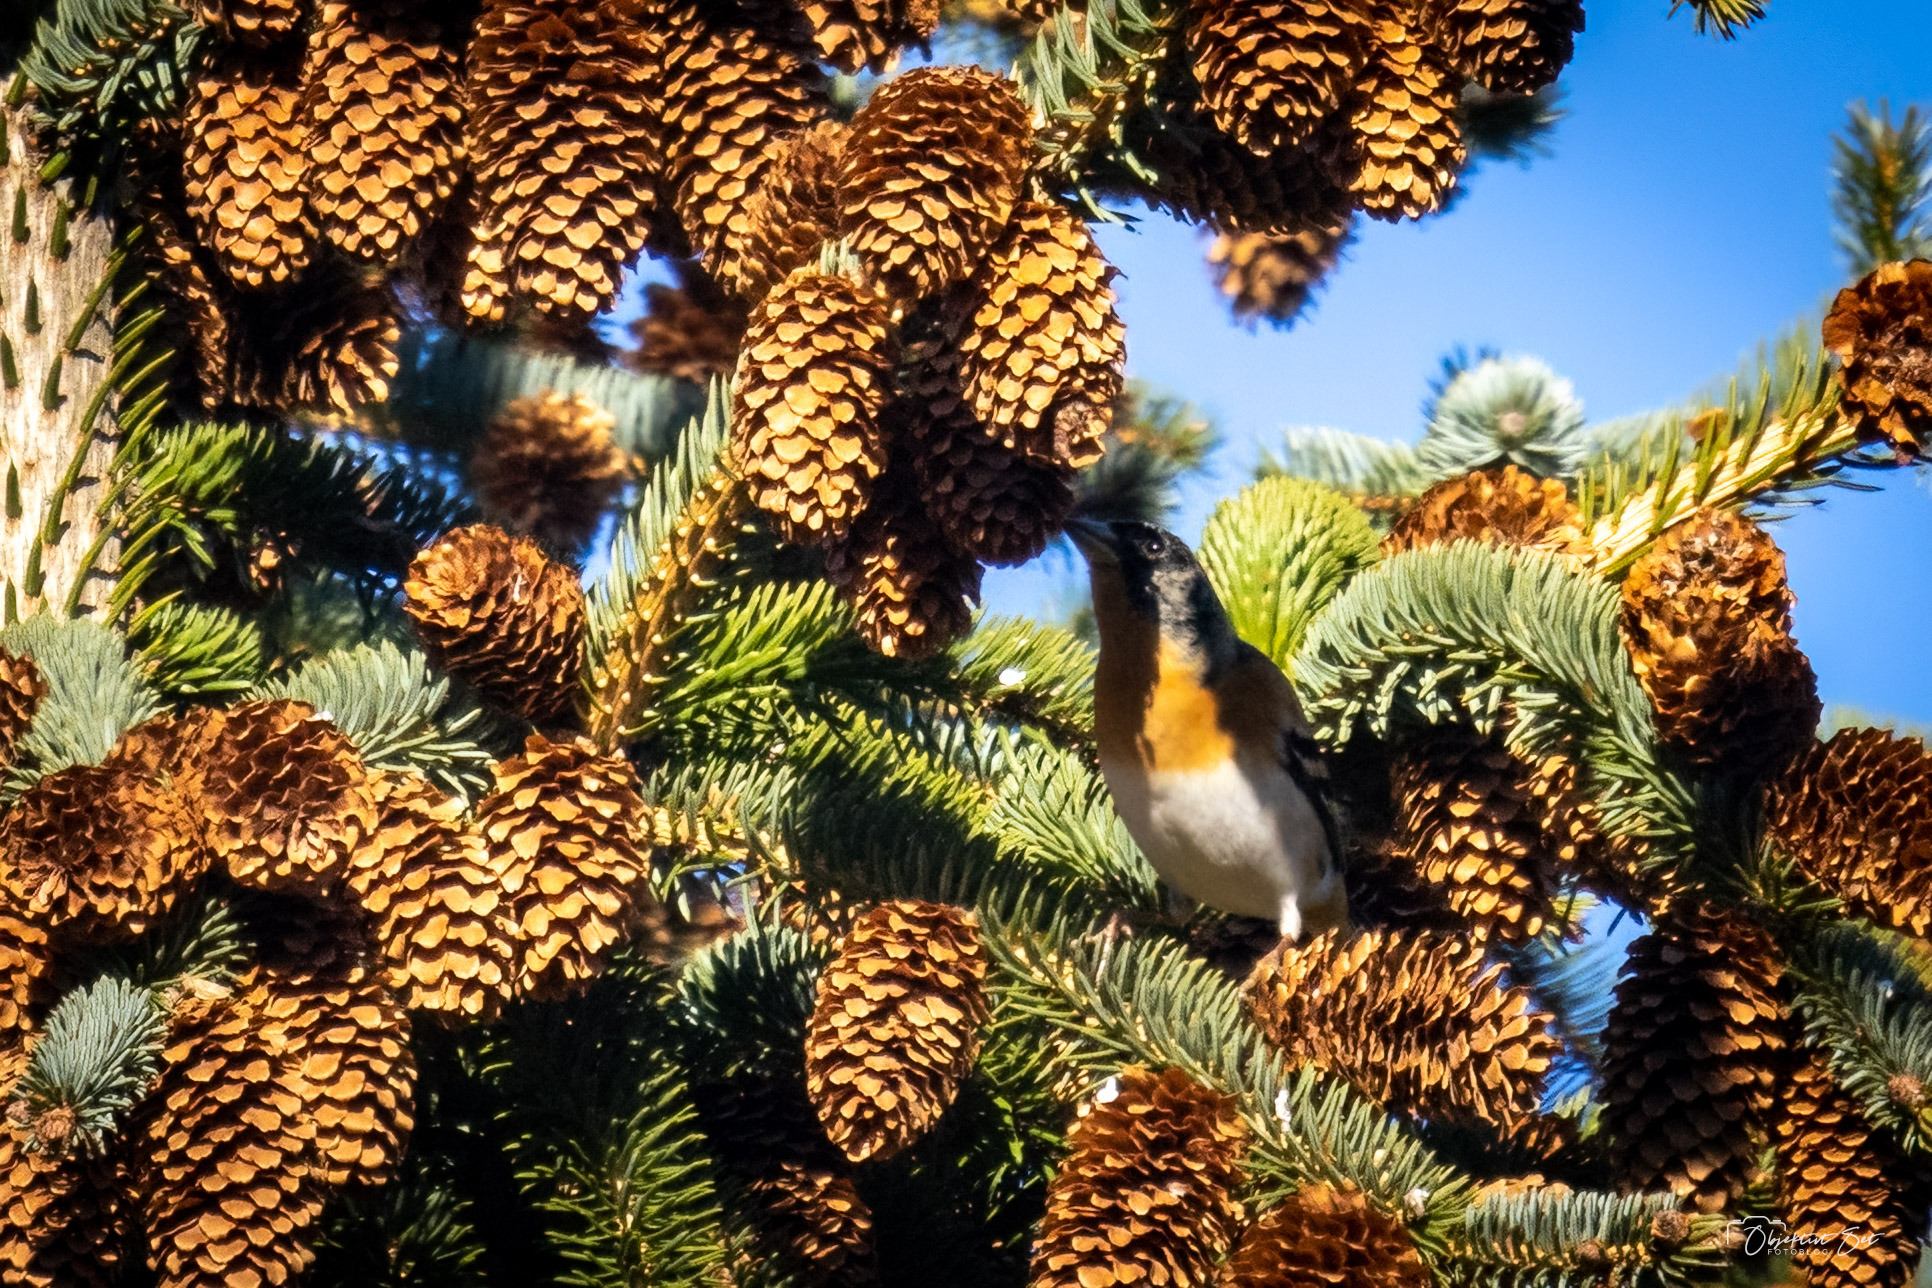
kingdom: Animalia
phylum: Chordata
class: Aves
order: Passeriformes
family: Fringillidae
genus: Fringilla
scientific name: Fringilla montifringilla
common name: Kvækerfinke
